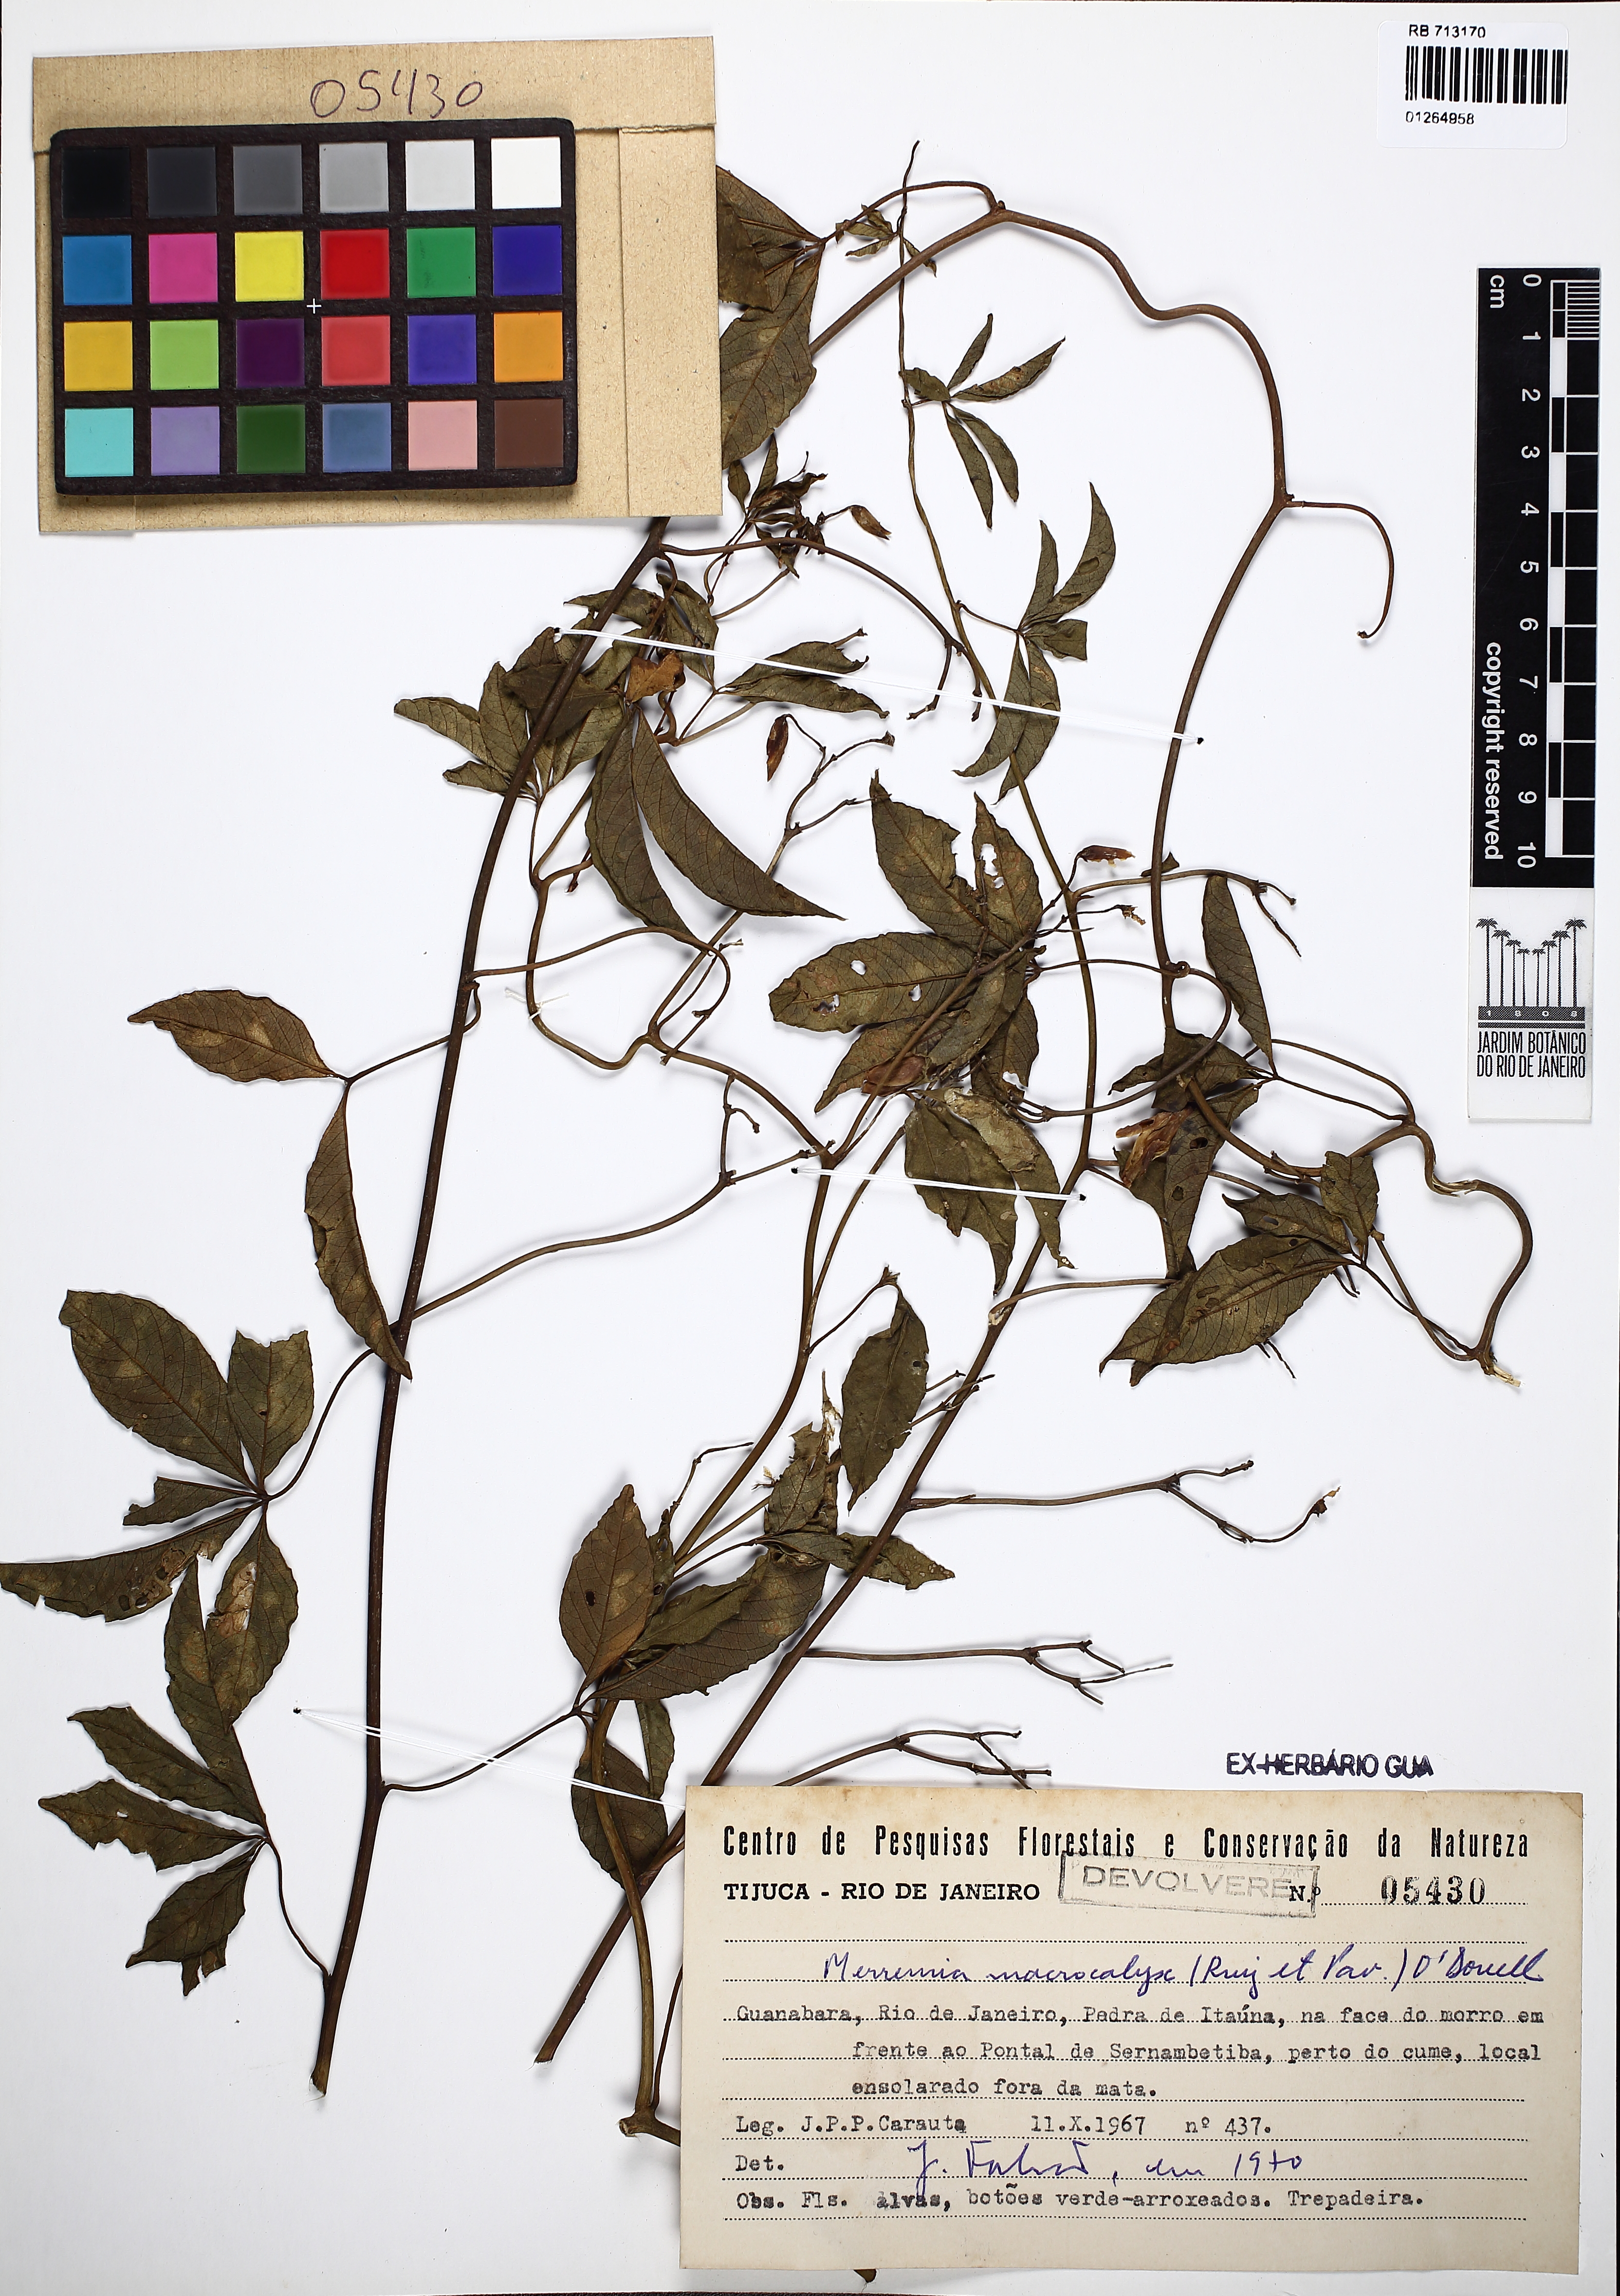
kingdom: Plantae
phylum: Tracheophyta
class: Magnoliopsida
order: Solanales
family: Convolvulaceae
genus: Distimake
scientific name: Distimake macrocalyx
